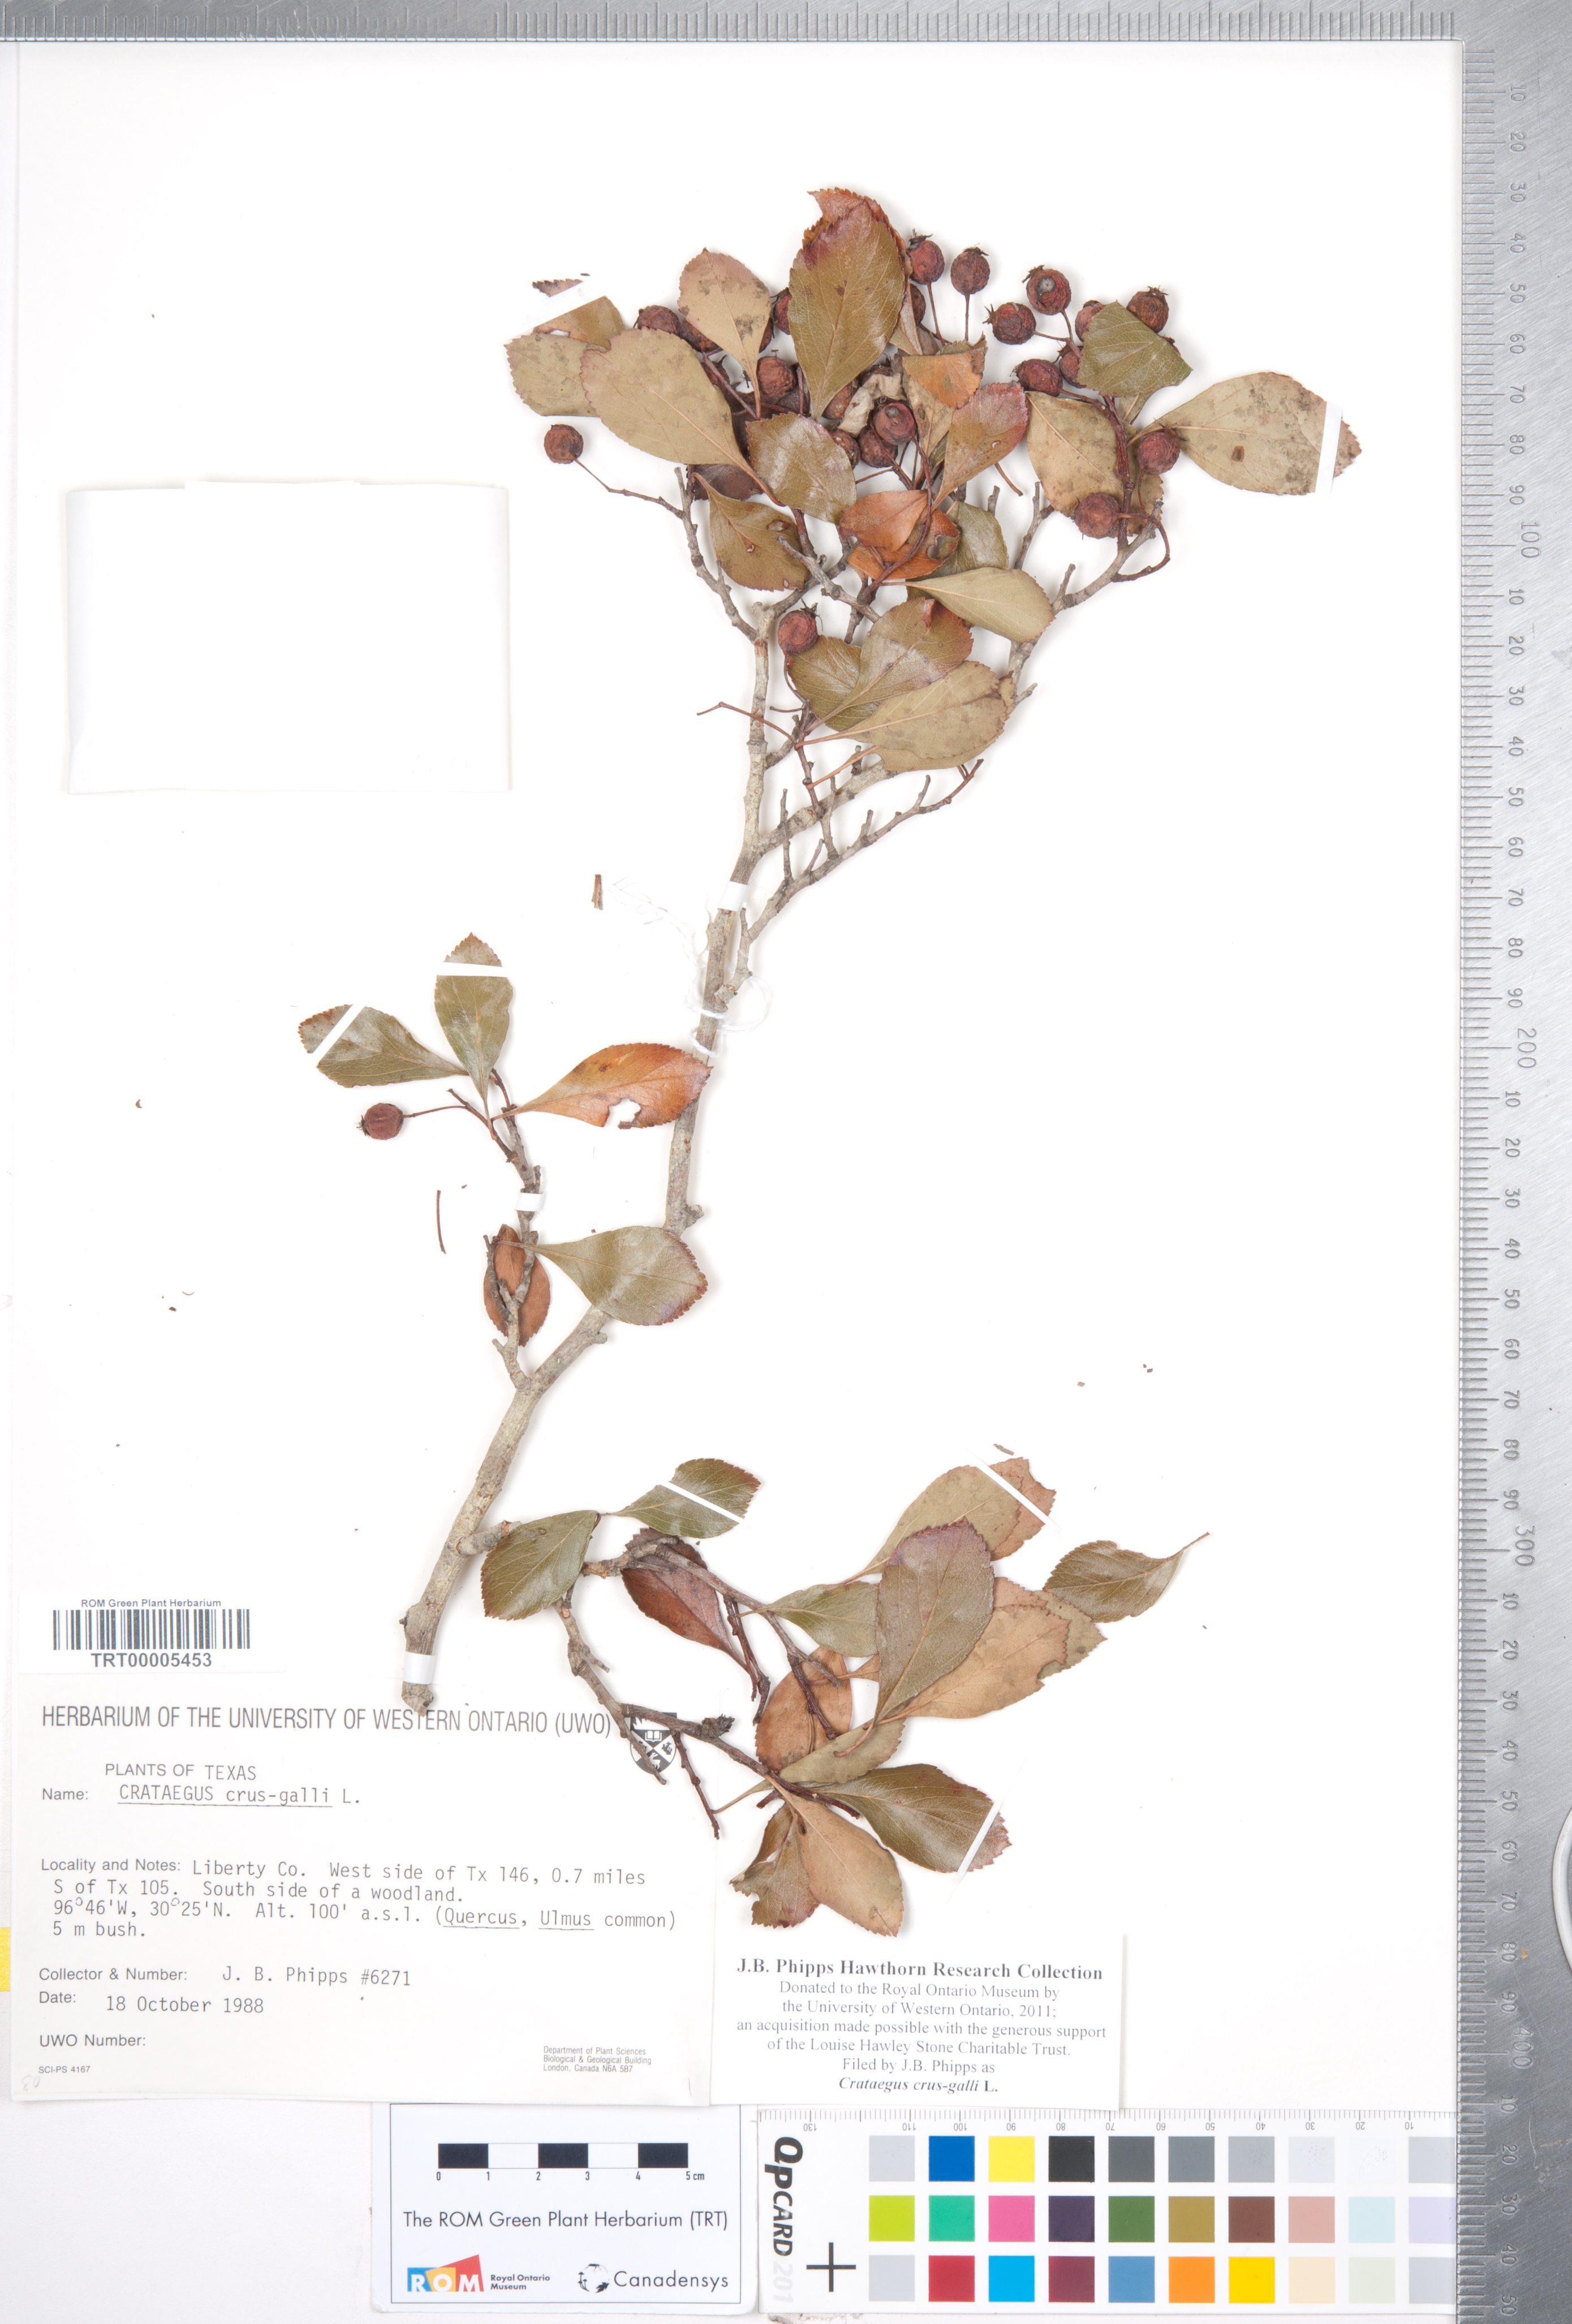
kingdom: Plantae
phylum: Tracheophyta
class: Magnoliopsida
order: Rosales
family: Rosaceae
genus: Crataegus
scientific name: Crataegus crus-galli
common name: Cockspurthorn
